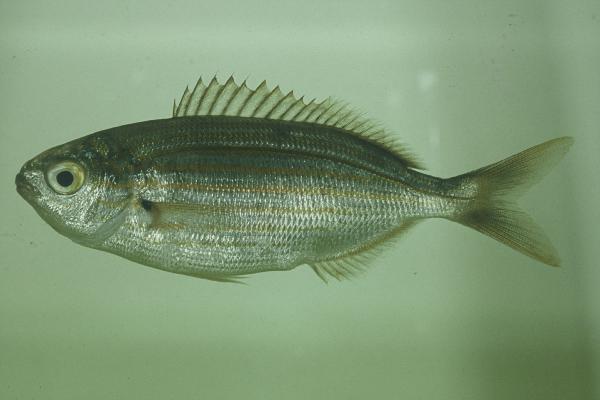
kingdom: Animalia
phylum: Chordata
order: Perciformes
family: Sparidae
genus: Sarpa
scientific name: Sarpa salpa
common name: Salema
